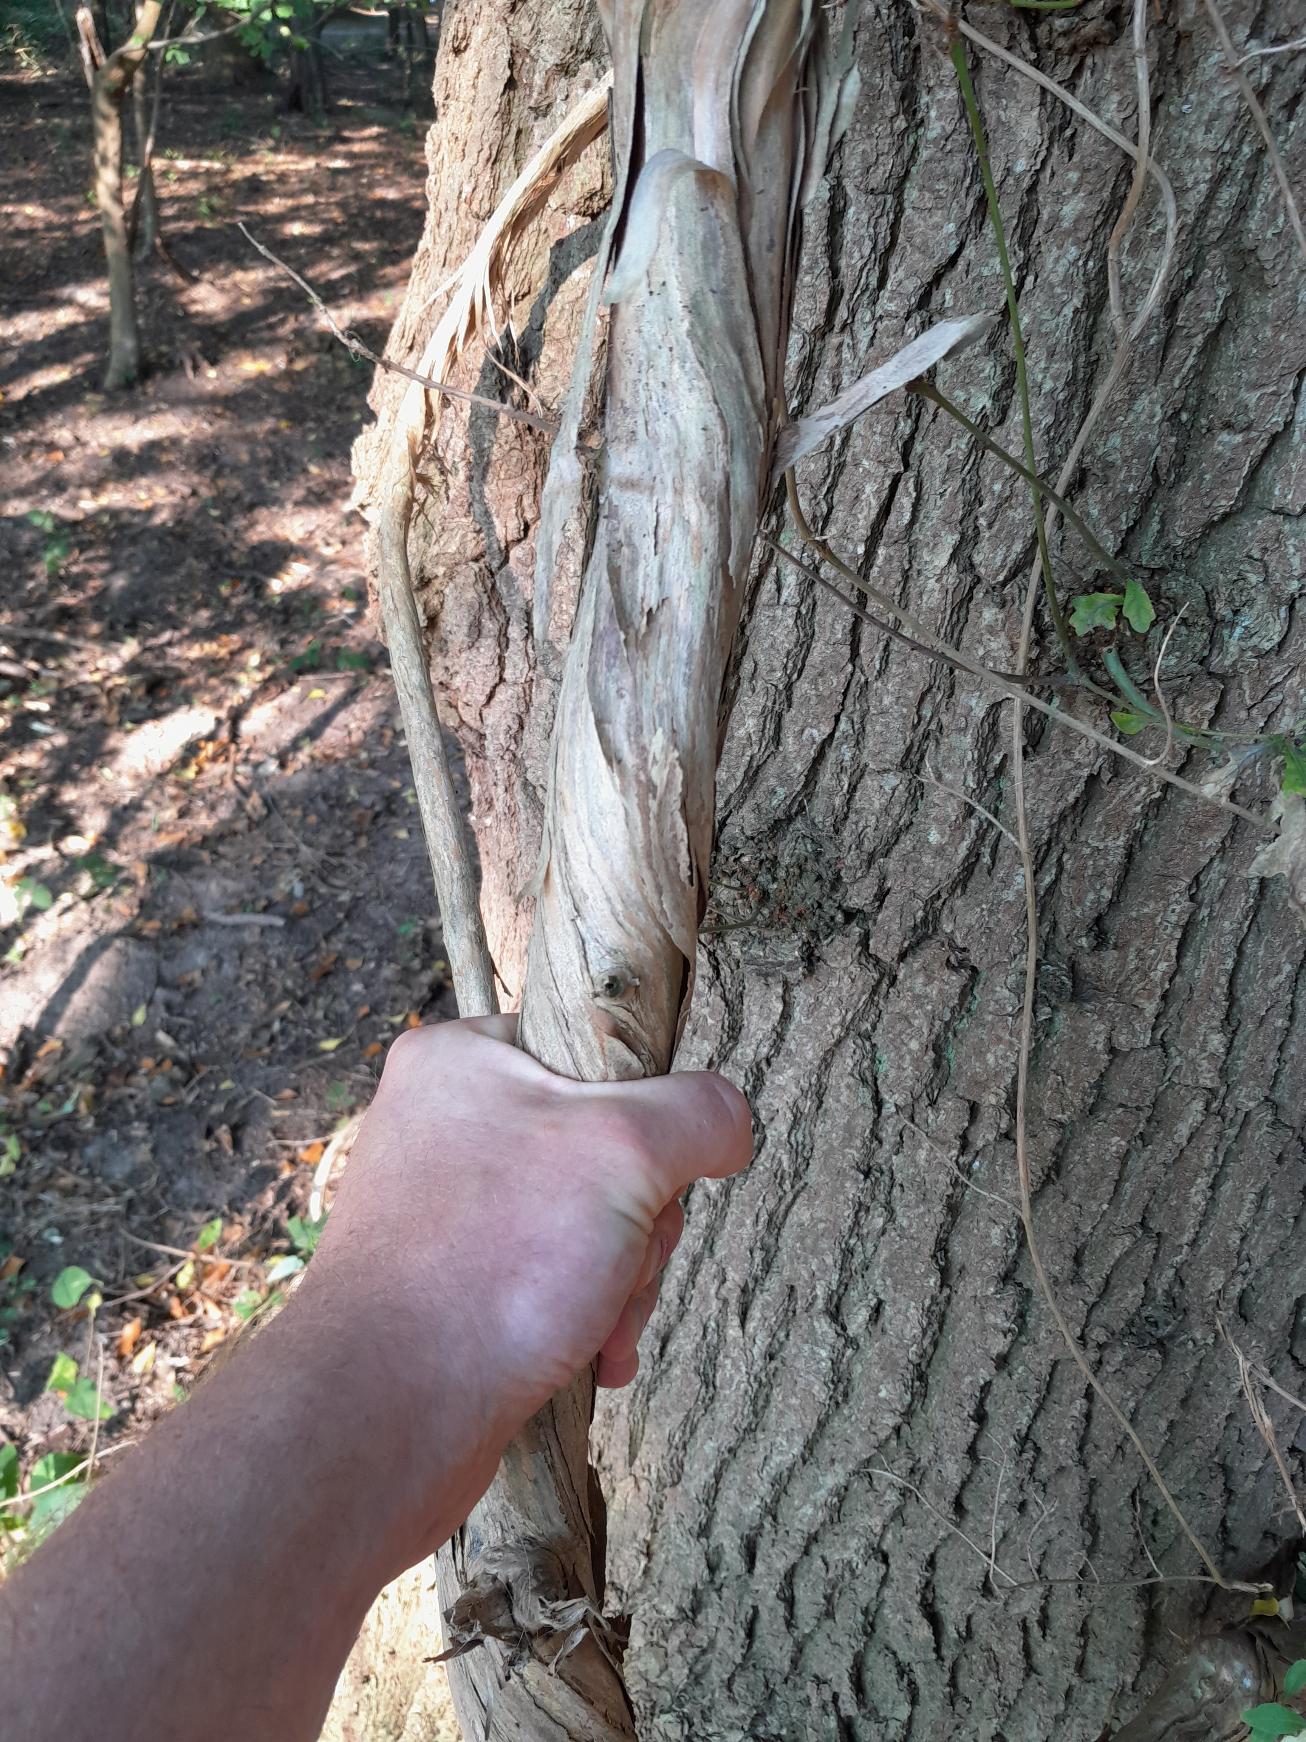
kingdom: Plantae
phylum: Tracheophyta
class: Magnoliopsida
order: Dipsacales
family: Caprifoliaceae
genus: Lonicera
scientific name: Lonicera periclymenum
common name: Almindelig gedeblad
